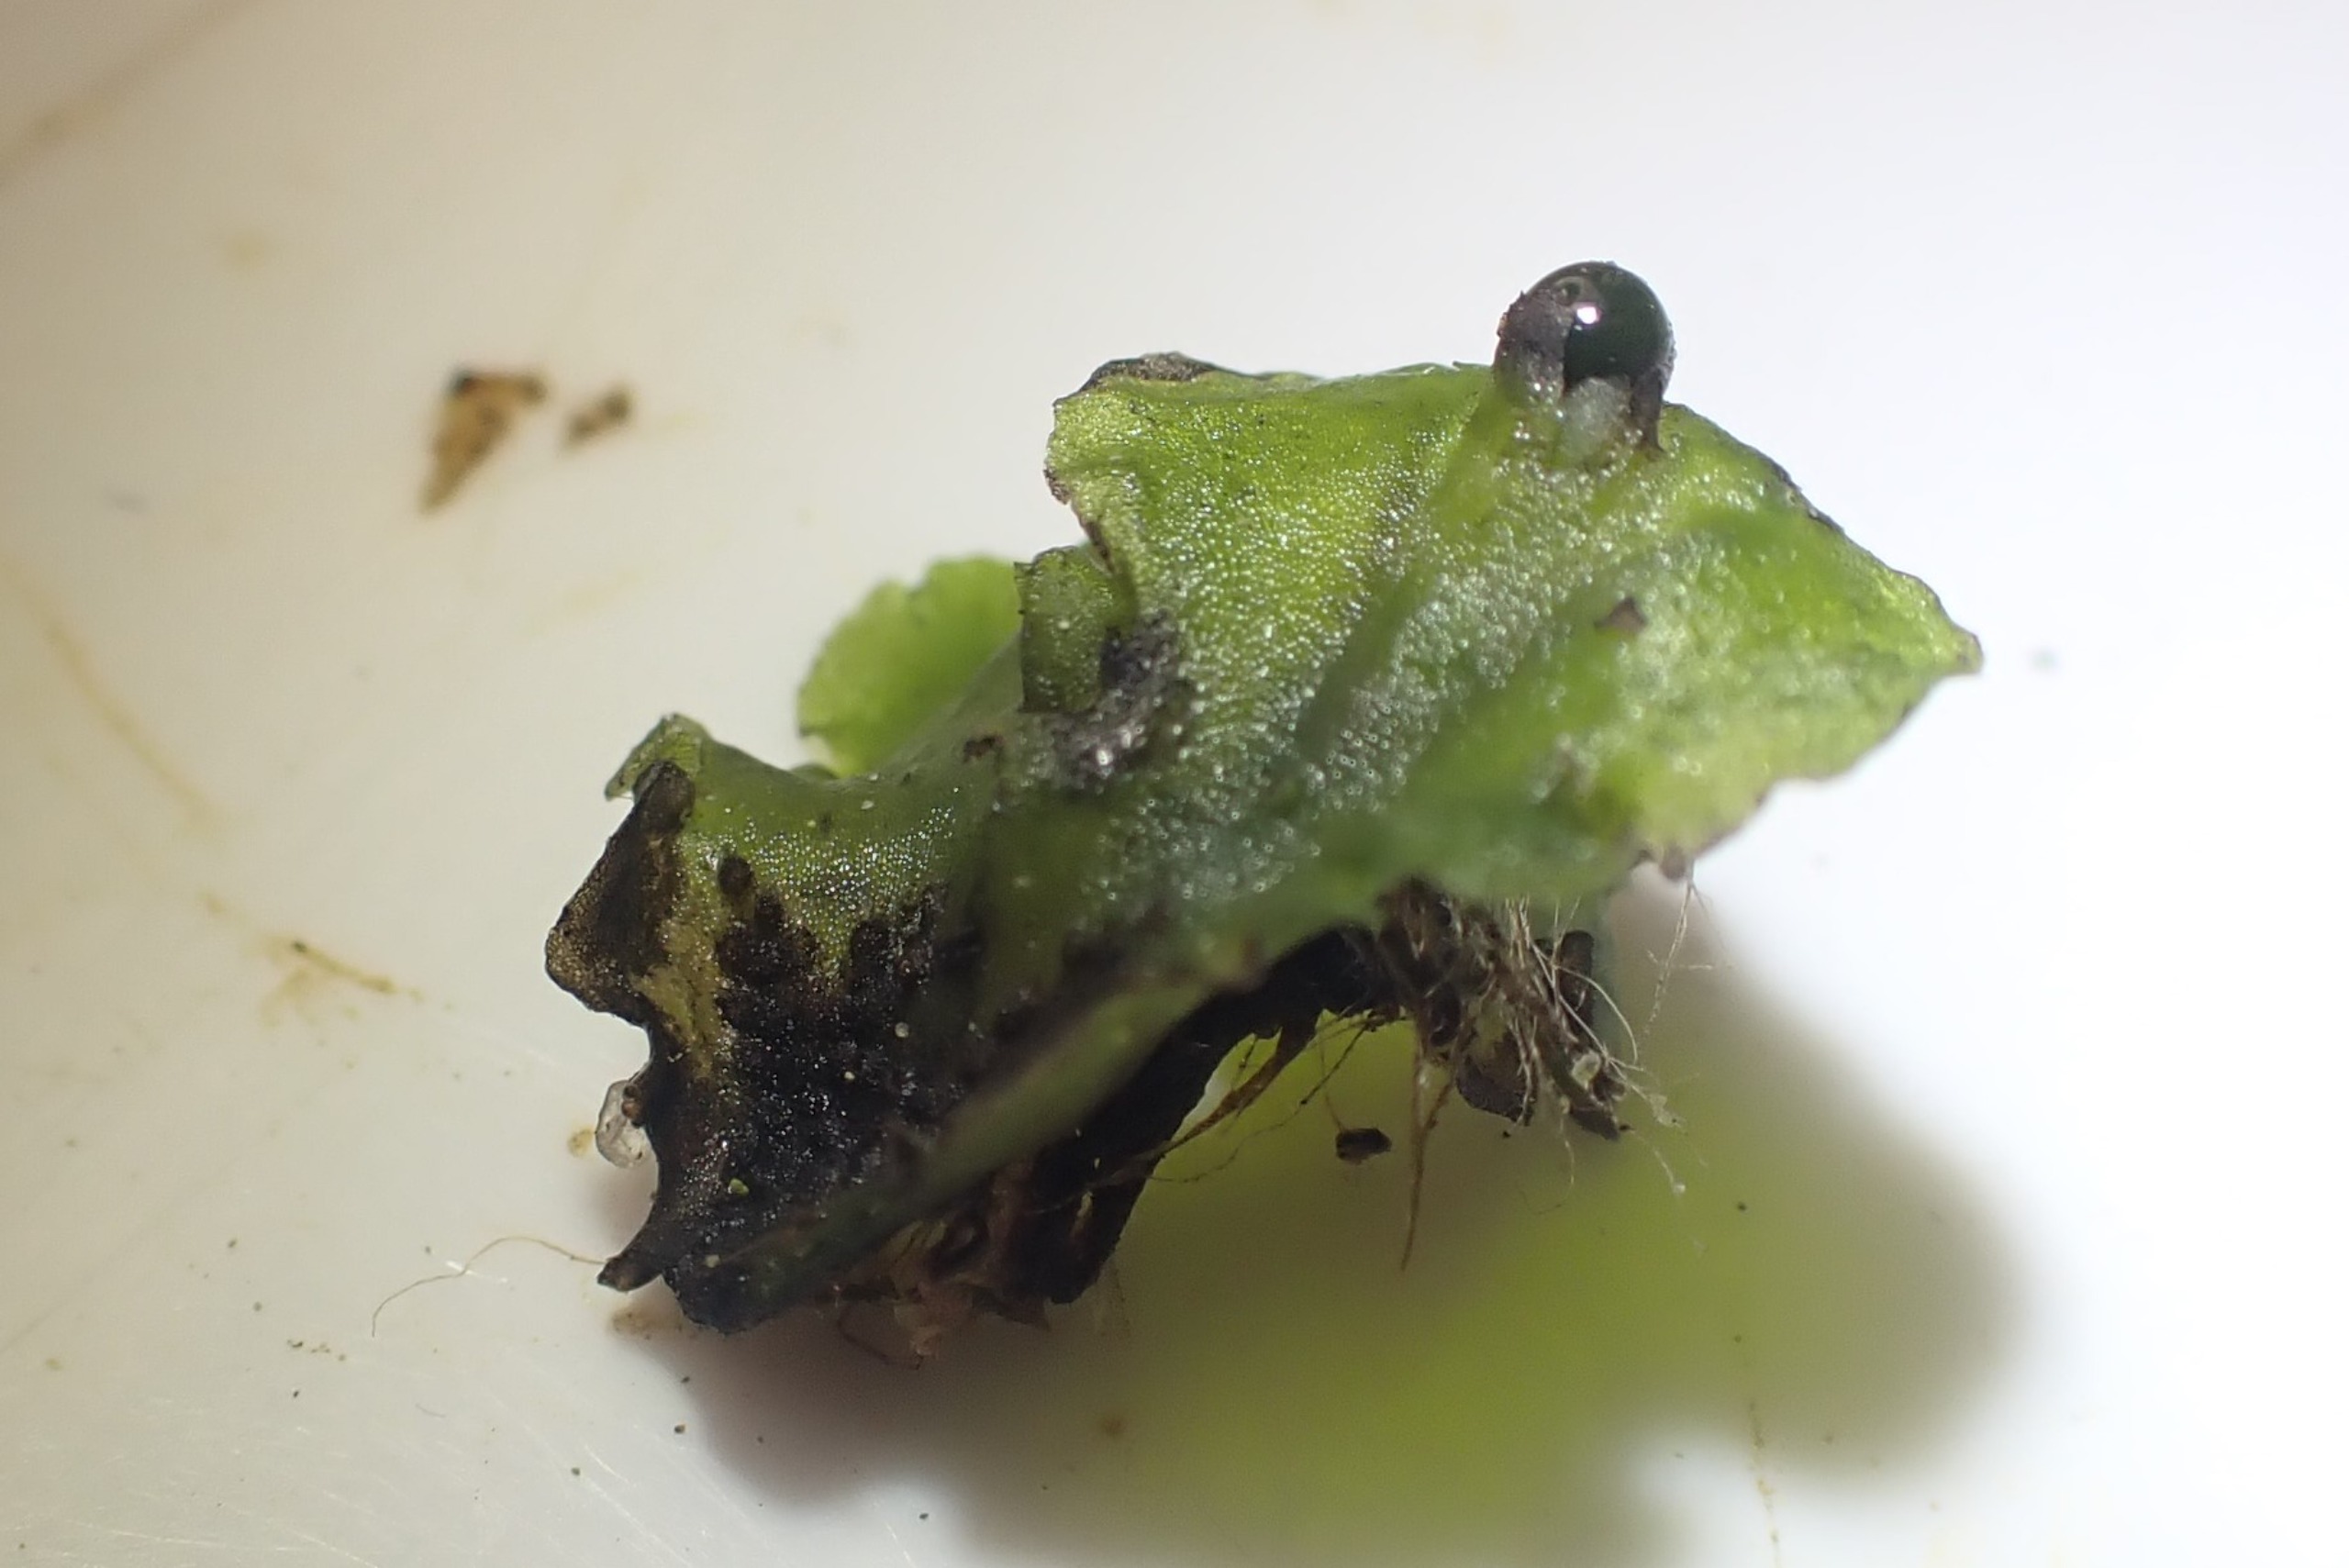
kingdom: Plantae
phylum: Marchantiophyta
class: Jungermanniopsida
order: Pelliales
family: Pelliaceae
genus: Pellia
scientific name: Pellia epiphylla
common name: Enbo ribbeløv
